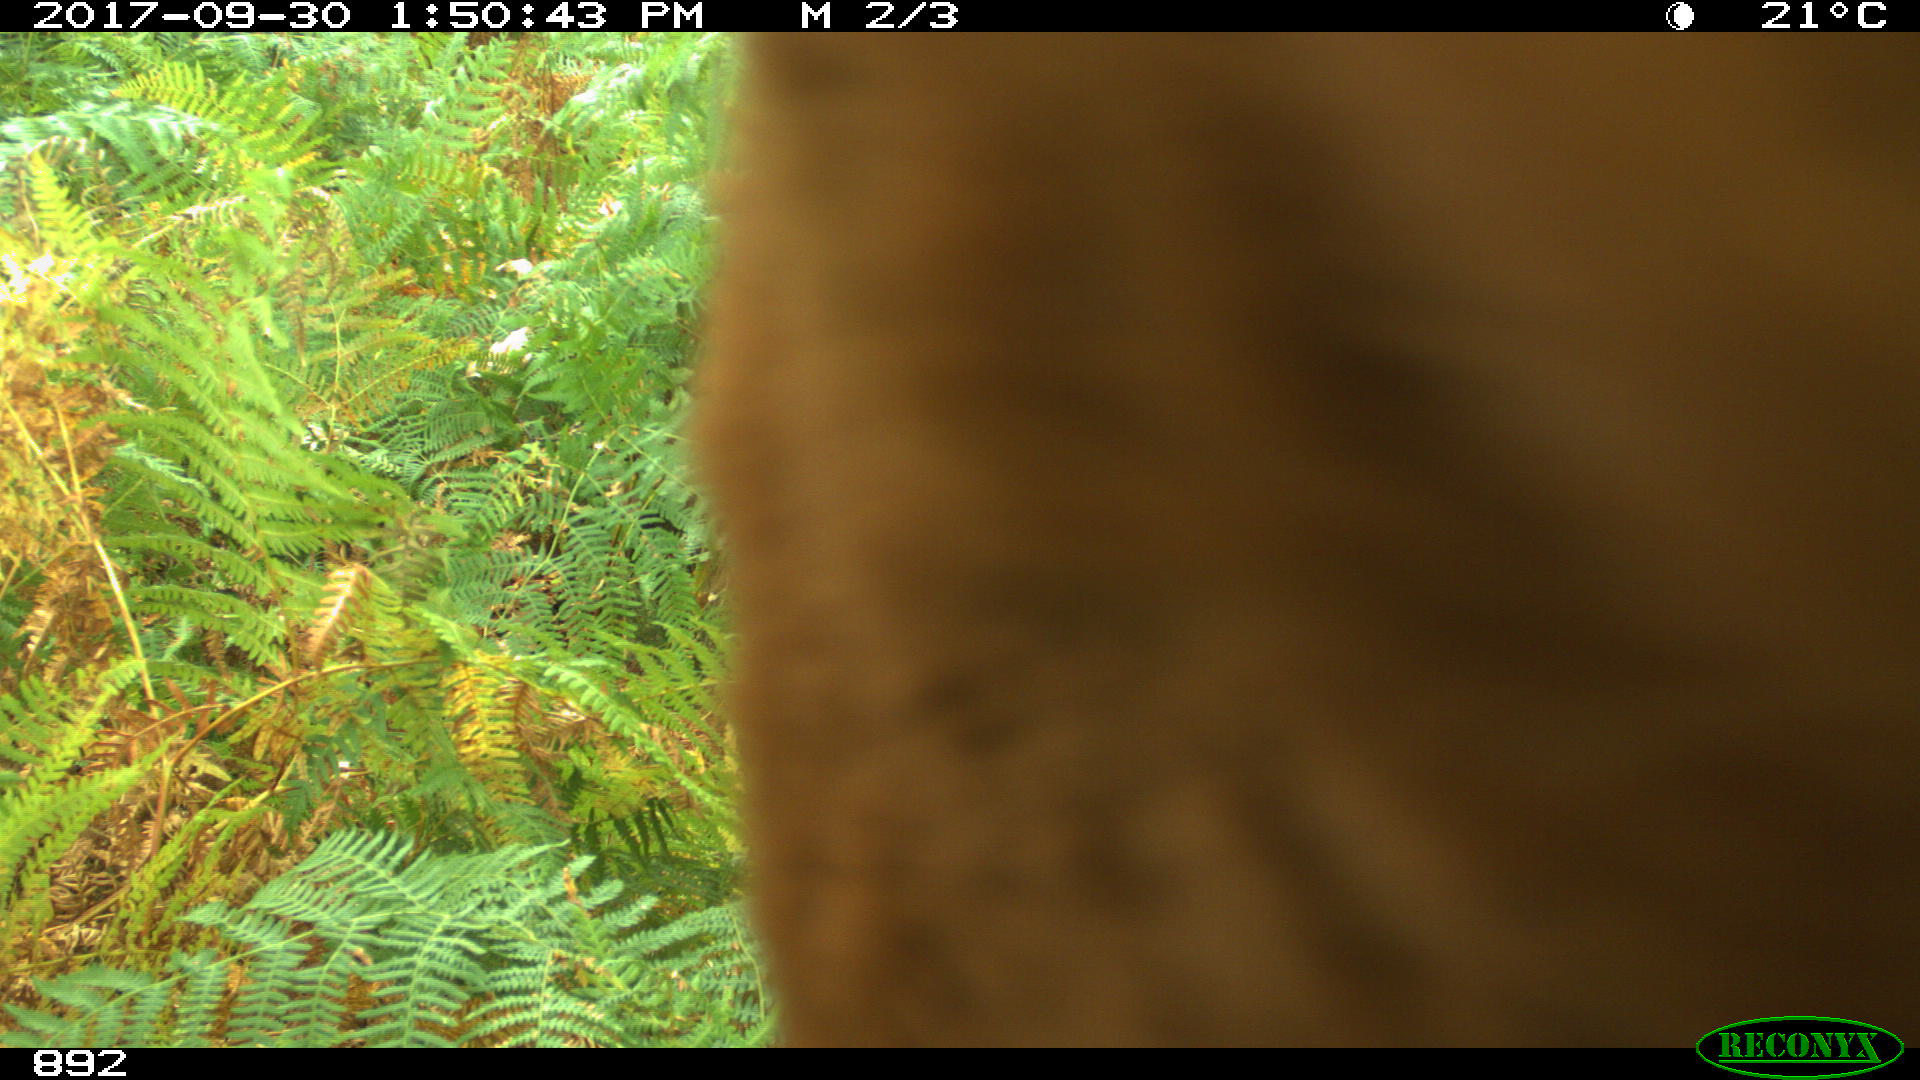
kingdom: Animalia
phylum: Chordata
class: Mammalia
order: Perissodactyla
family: Equidae
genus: Equus
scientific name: Equus caballus
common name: Horse
